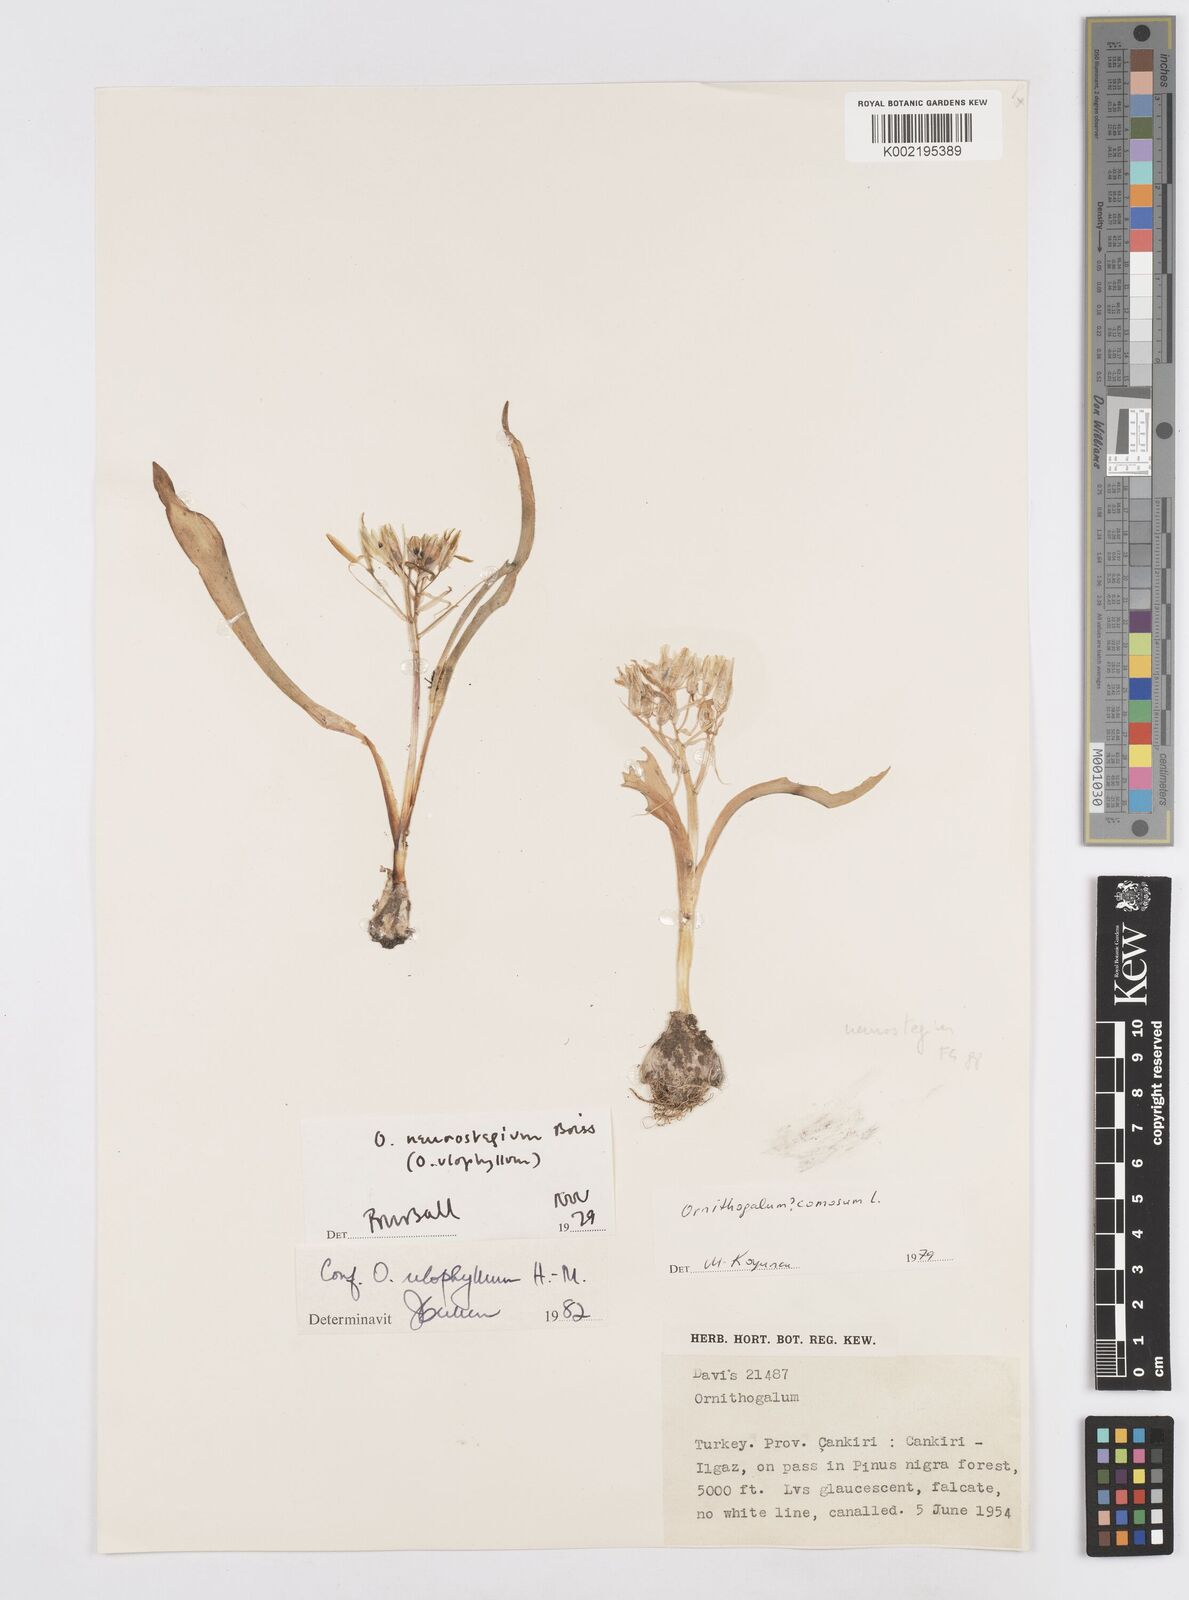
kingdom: Plantae
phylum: Tracheophyta
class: Liliopsida
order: Asparagales
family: Asparagaceae
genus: Ornithogalum
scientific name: Ornithogalum neurostegium
